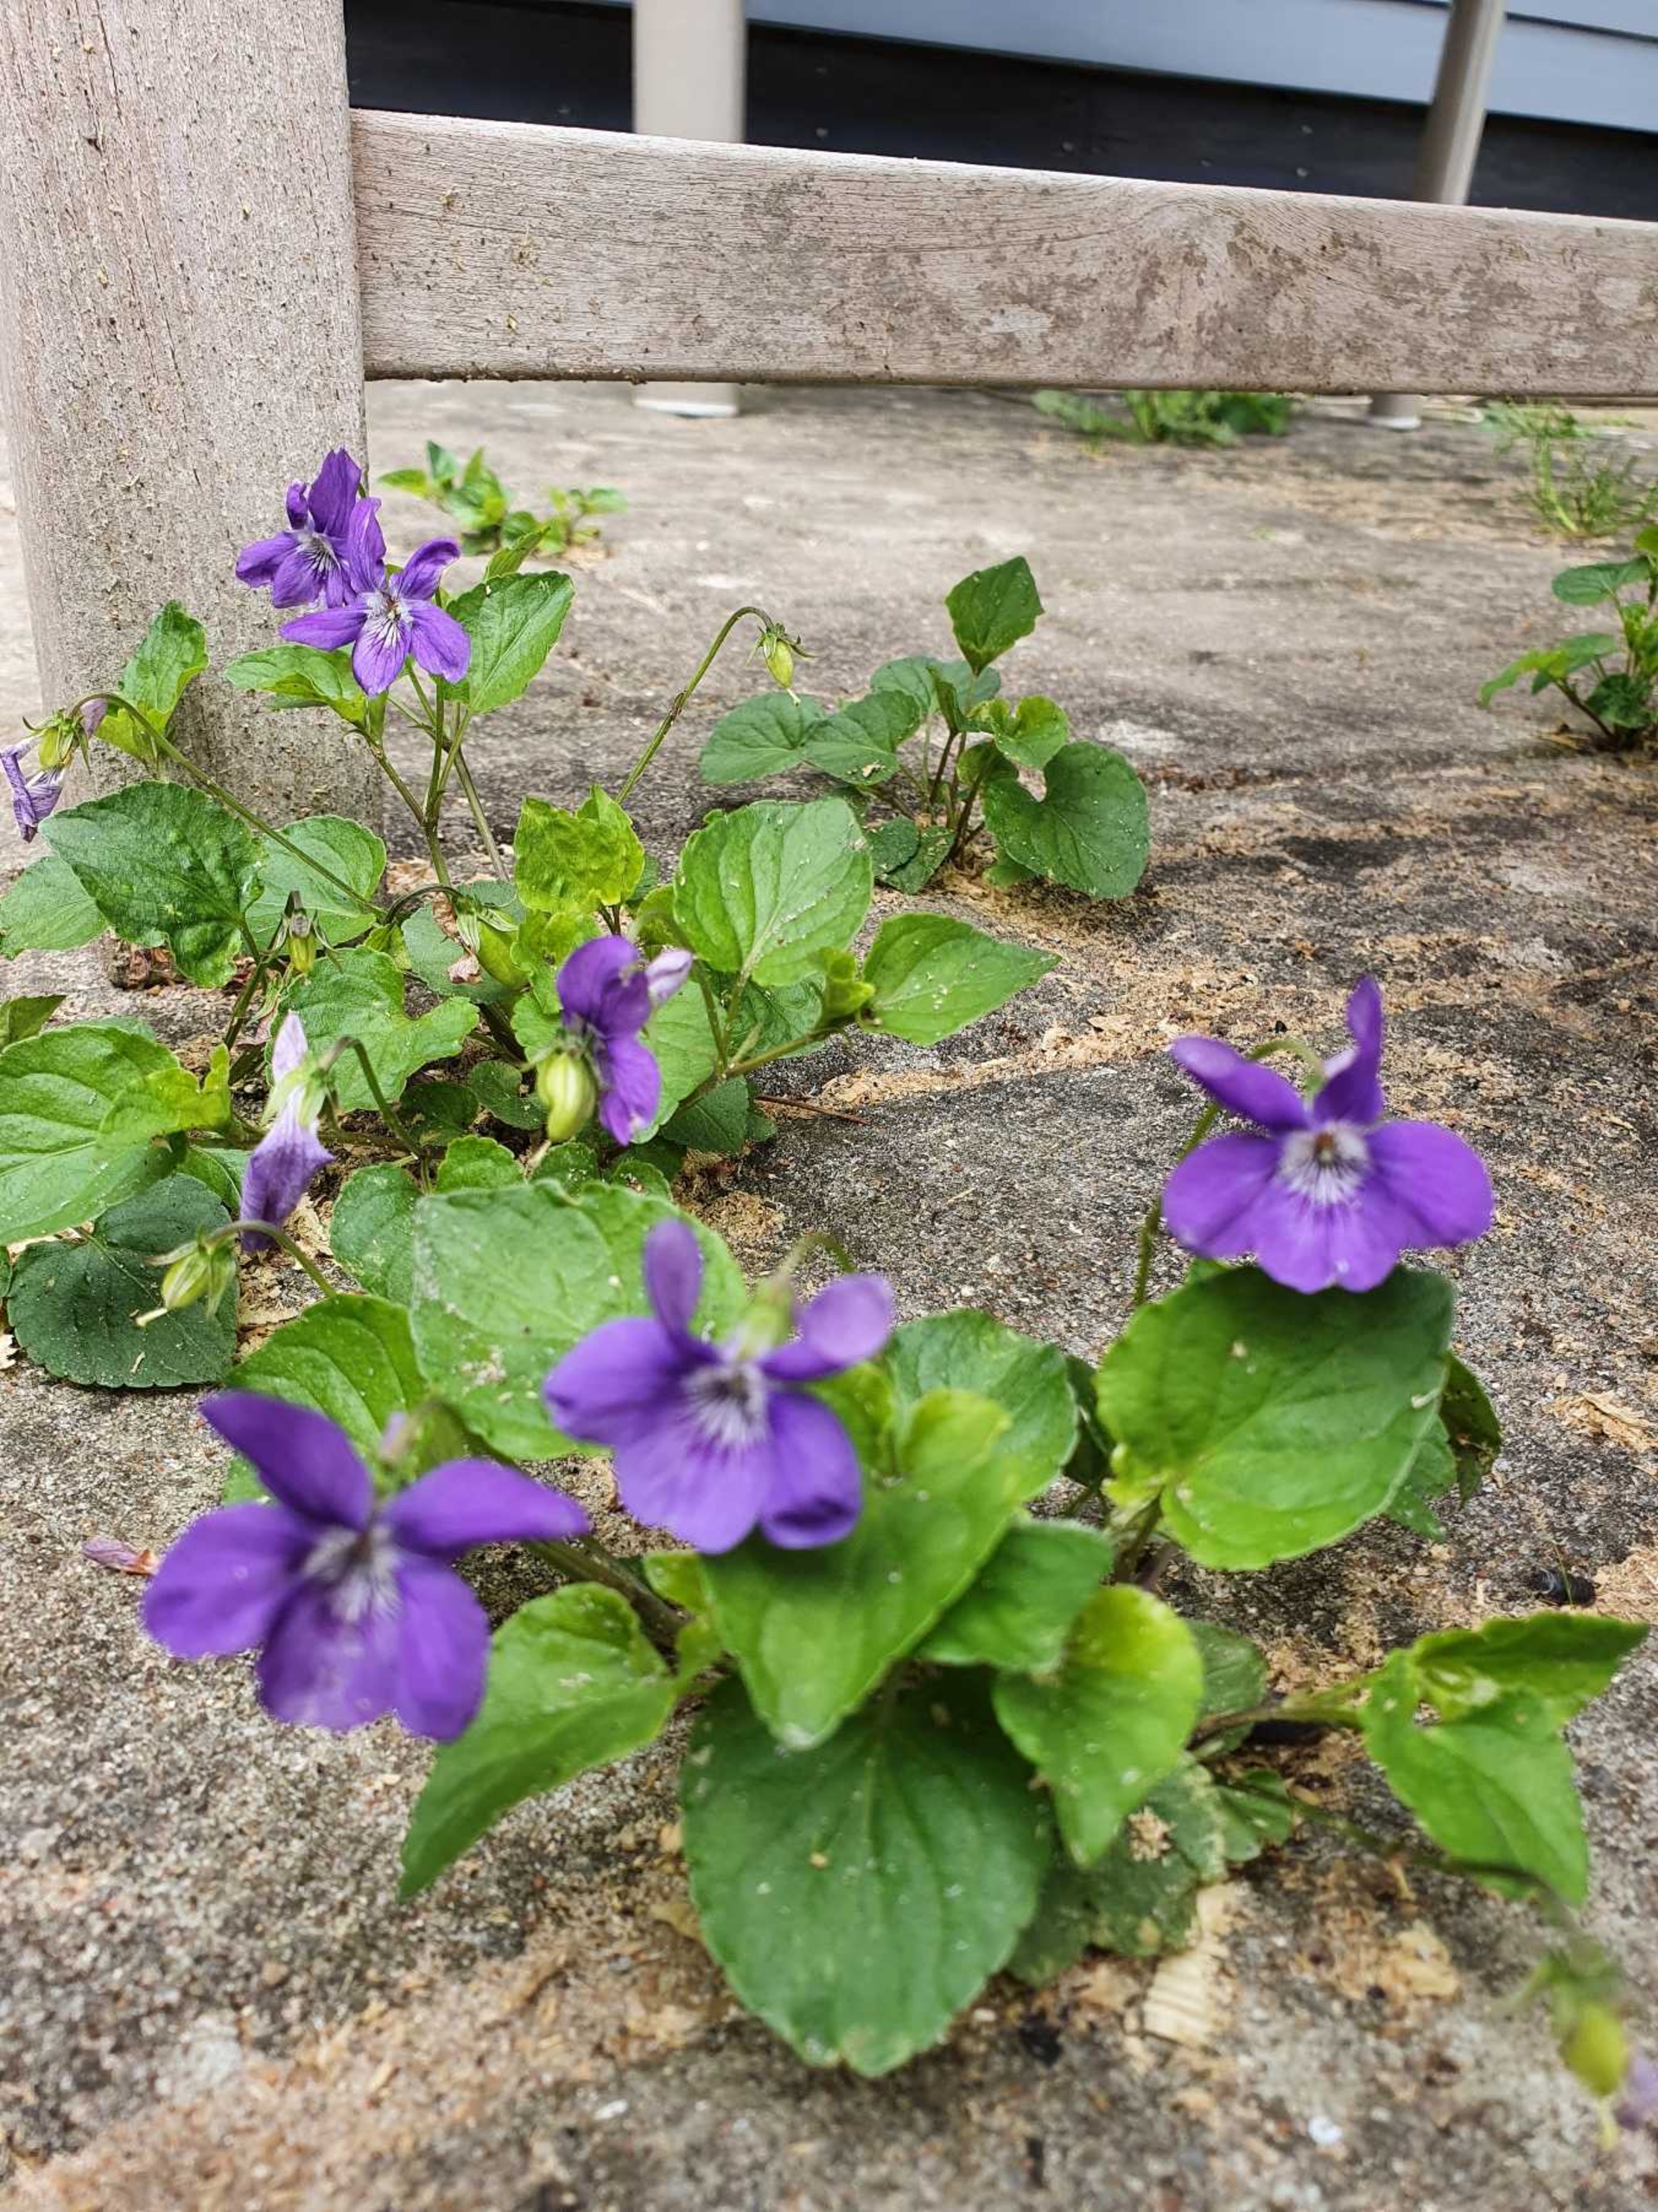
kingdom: Plantae
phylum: Tracheophyta
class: Magnoliopsida
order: Malpighiales
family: Violaceae
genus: Viola
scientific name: Viola odorata
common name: Marts-viol
